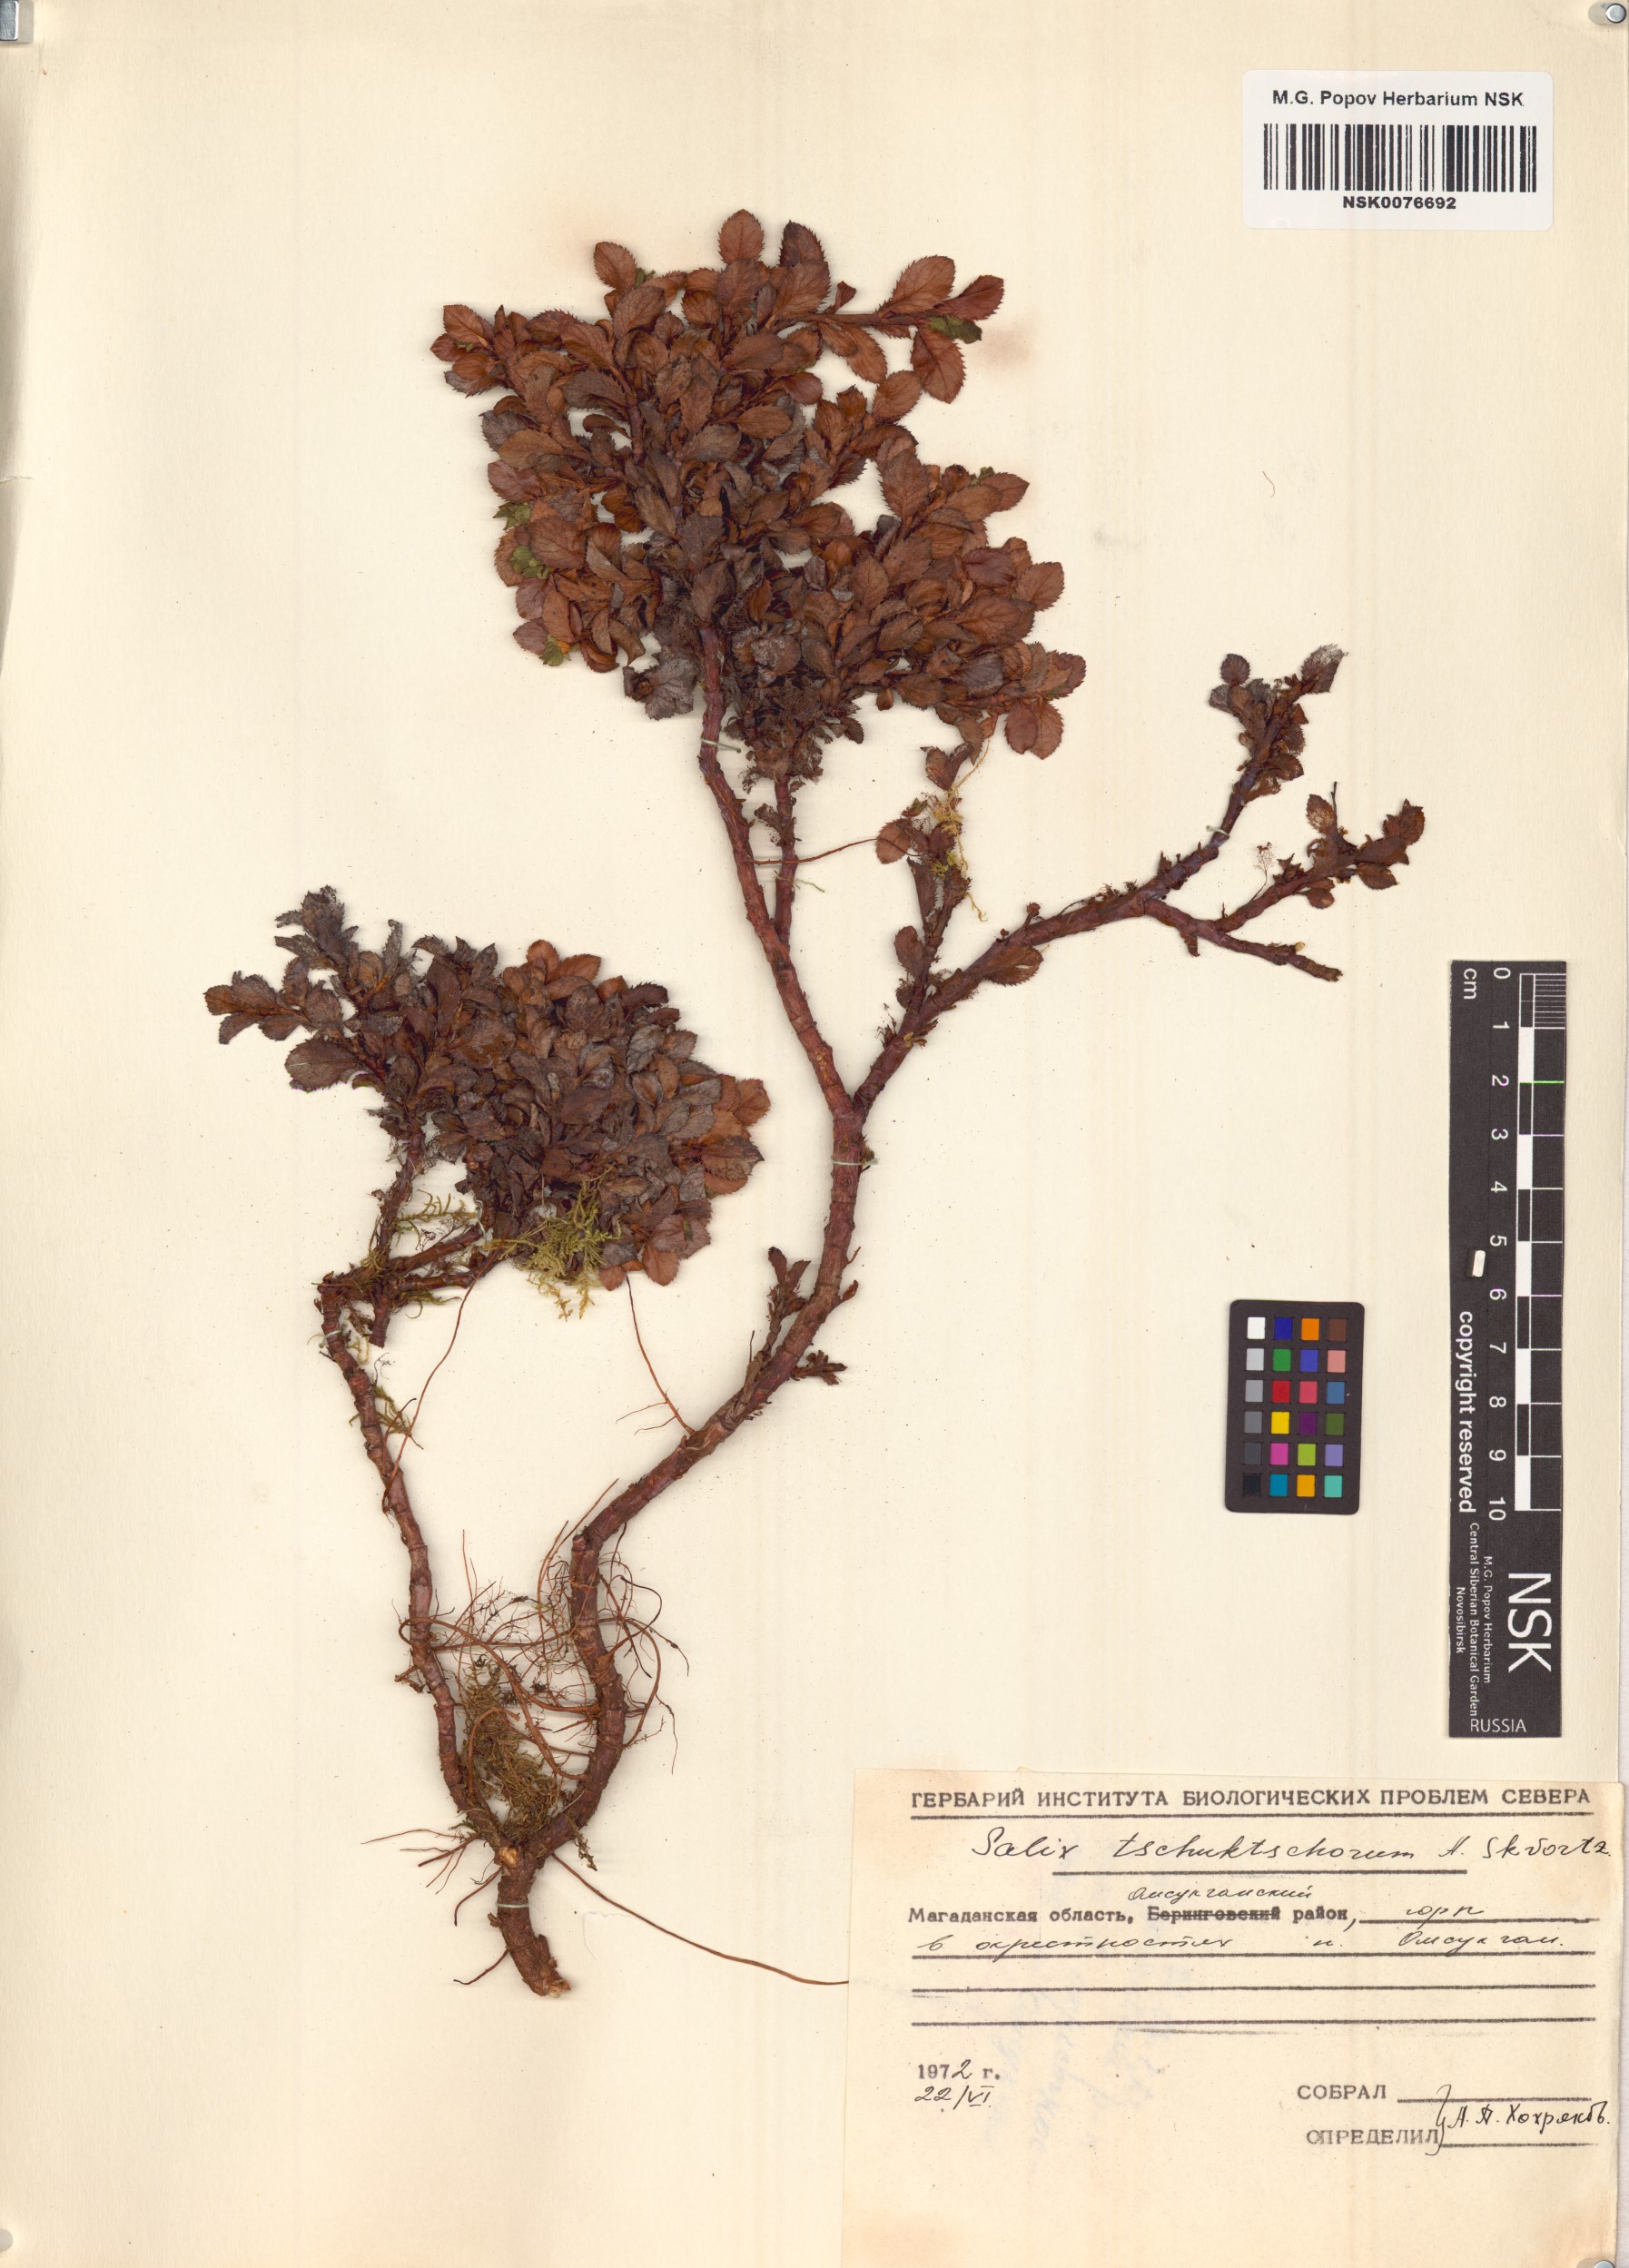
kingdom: Plantae
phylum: Tracheophyta
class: Magnoliopsida
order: Malpighiales
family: Salicaceae
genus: Salix
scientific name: Salix tschuktschorum
